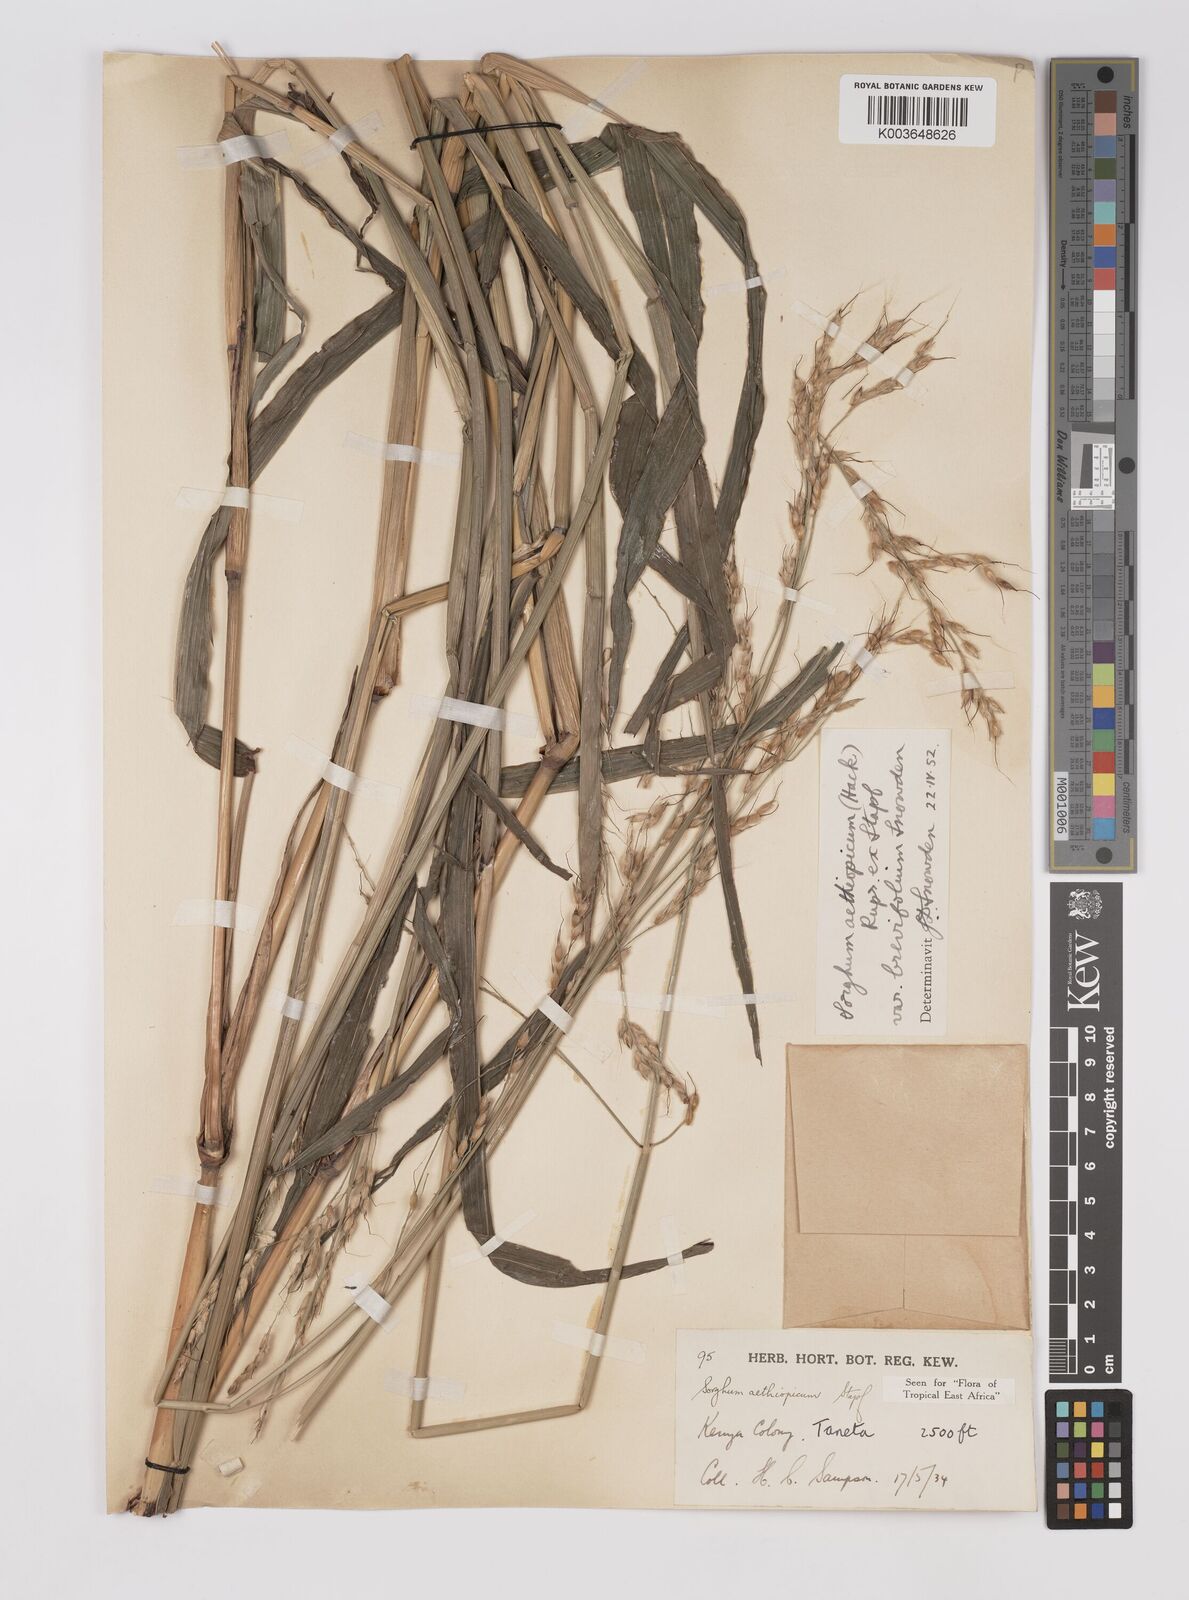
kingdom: Plantae
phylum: Tracheophyta
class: Liliopsida
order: Poales
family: Poaceae
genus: Sorghum
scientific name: Sorghum arundinaceum
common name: Sorghum
